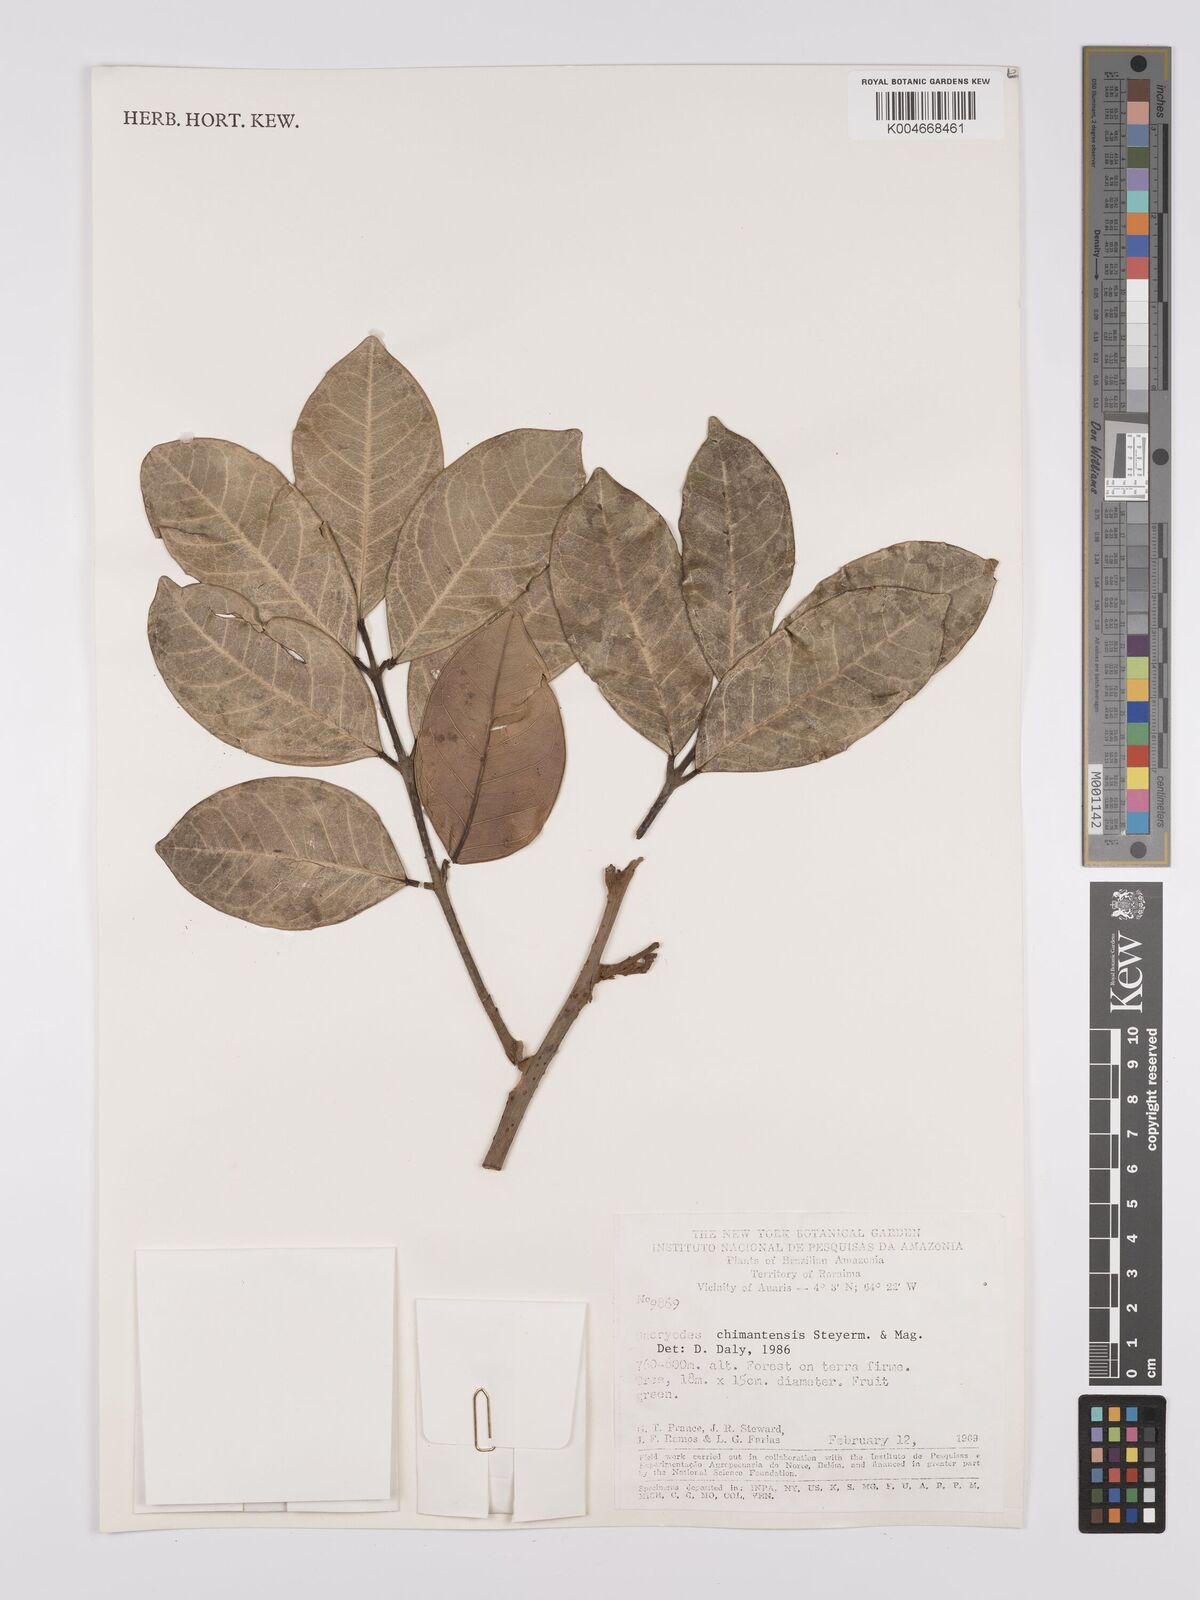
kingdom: Plantae
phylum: Tracheophyta
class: Magnoliopsida
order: Sapindales
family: Burseraceae
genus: Dacryodes
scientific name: Dacryodes chimantensis
